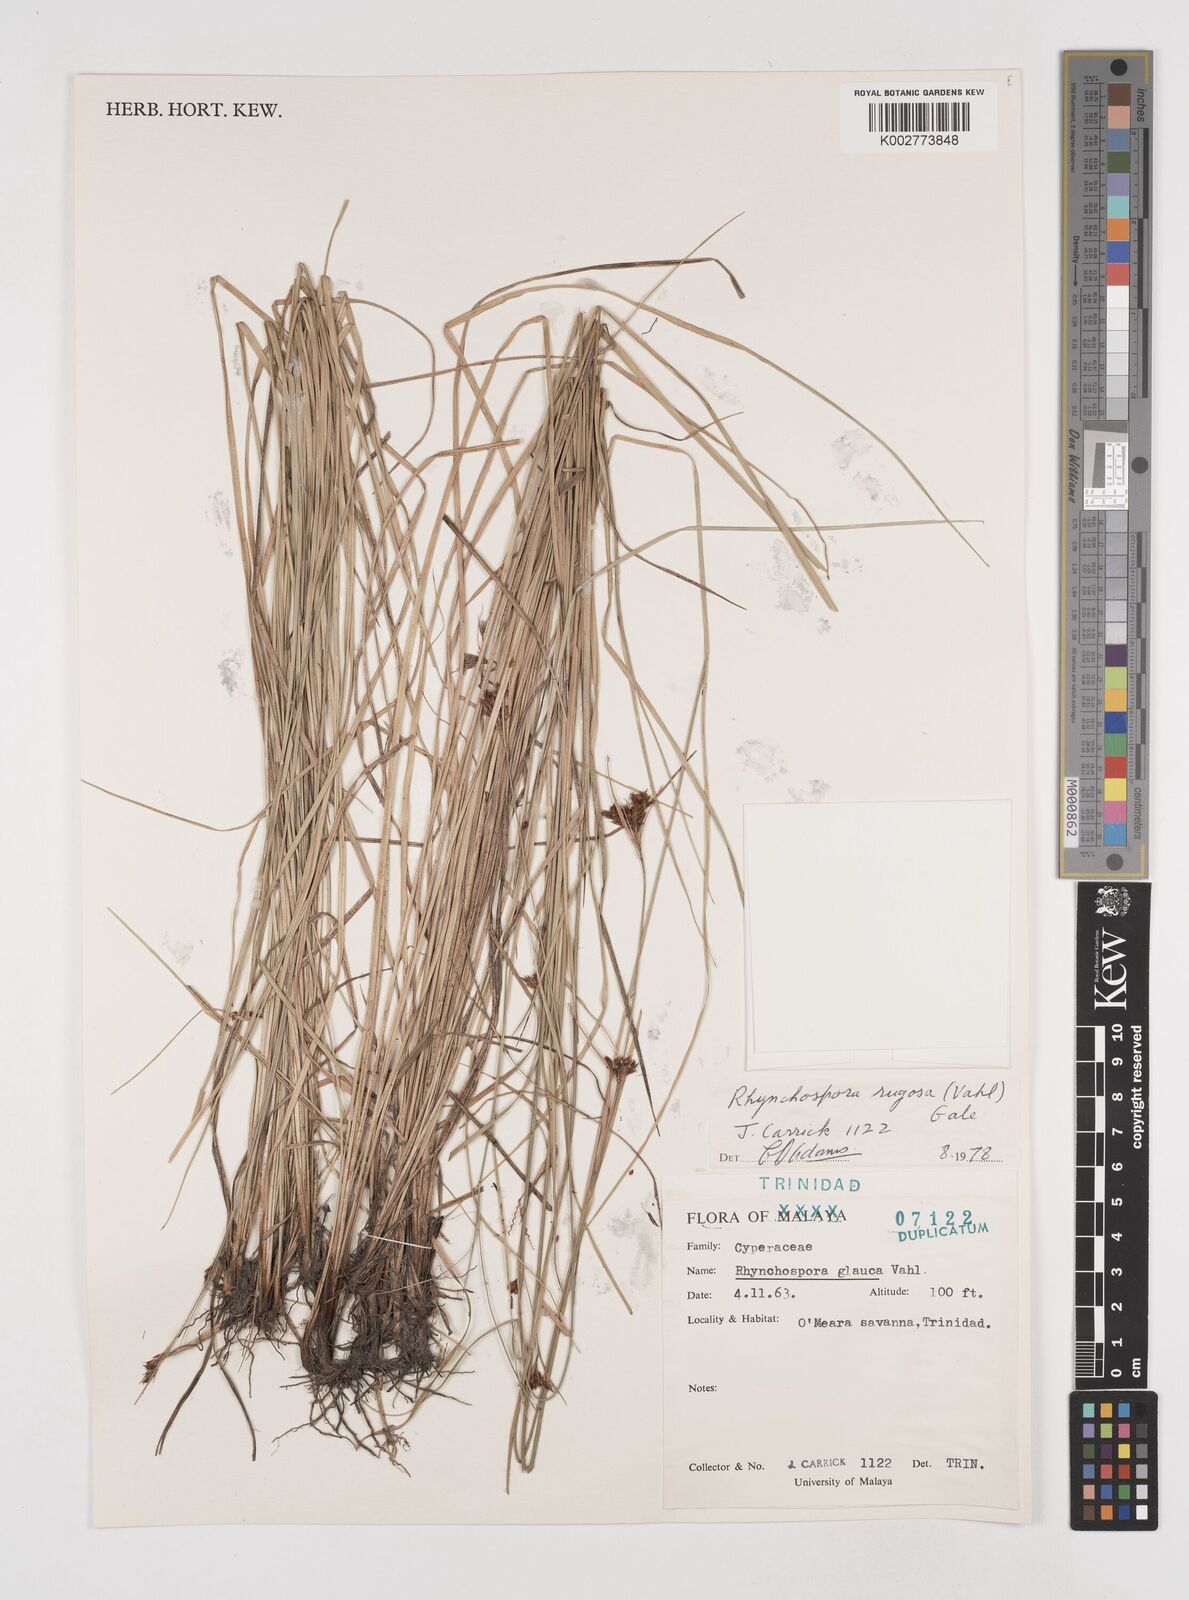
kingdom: Plantae
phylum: Tracheophyta
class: Liliopsida
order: Poales
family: Cyperaceae
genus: Rhynchospora
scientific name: Rhynchospora rugosa
